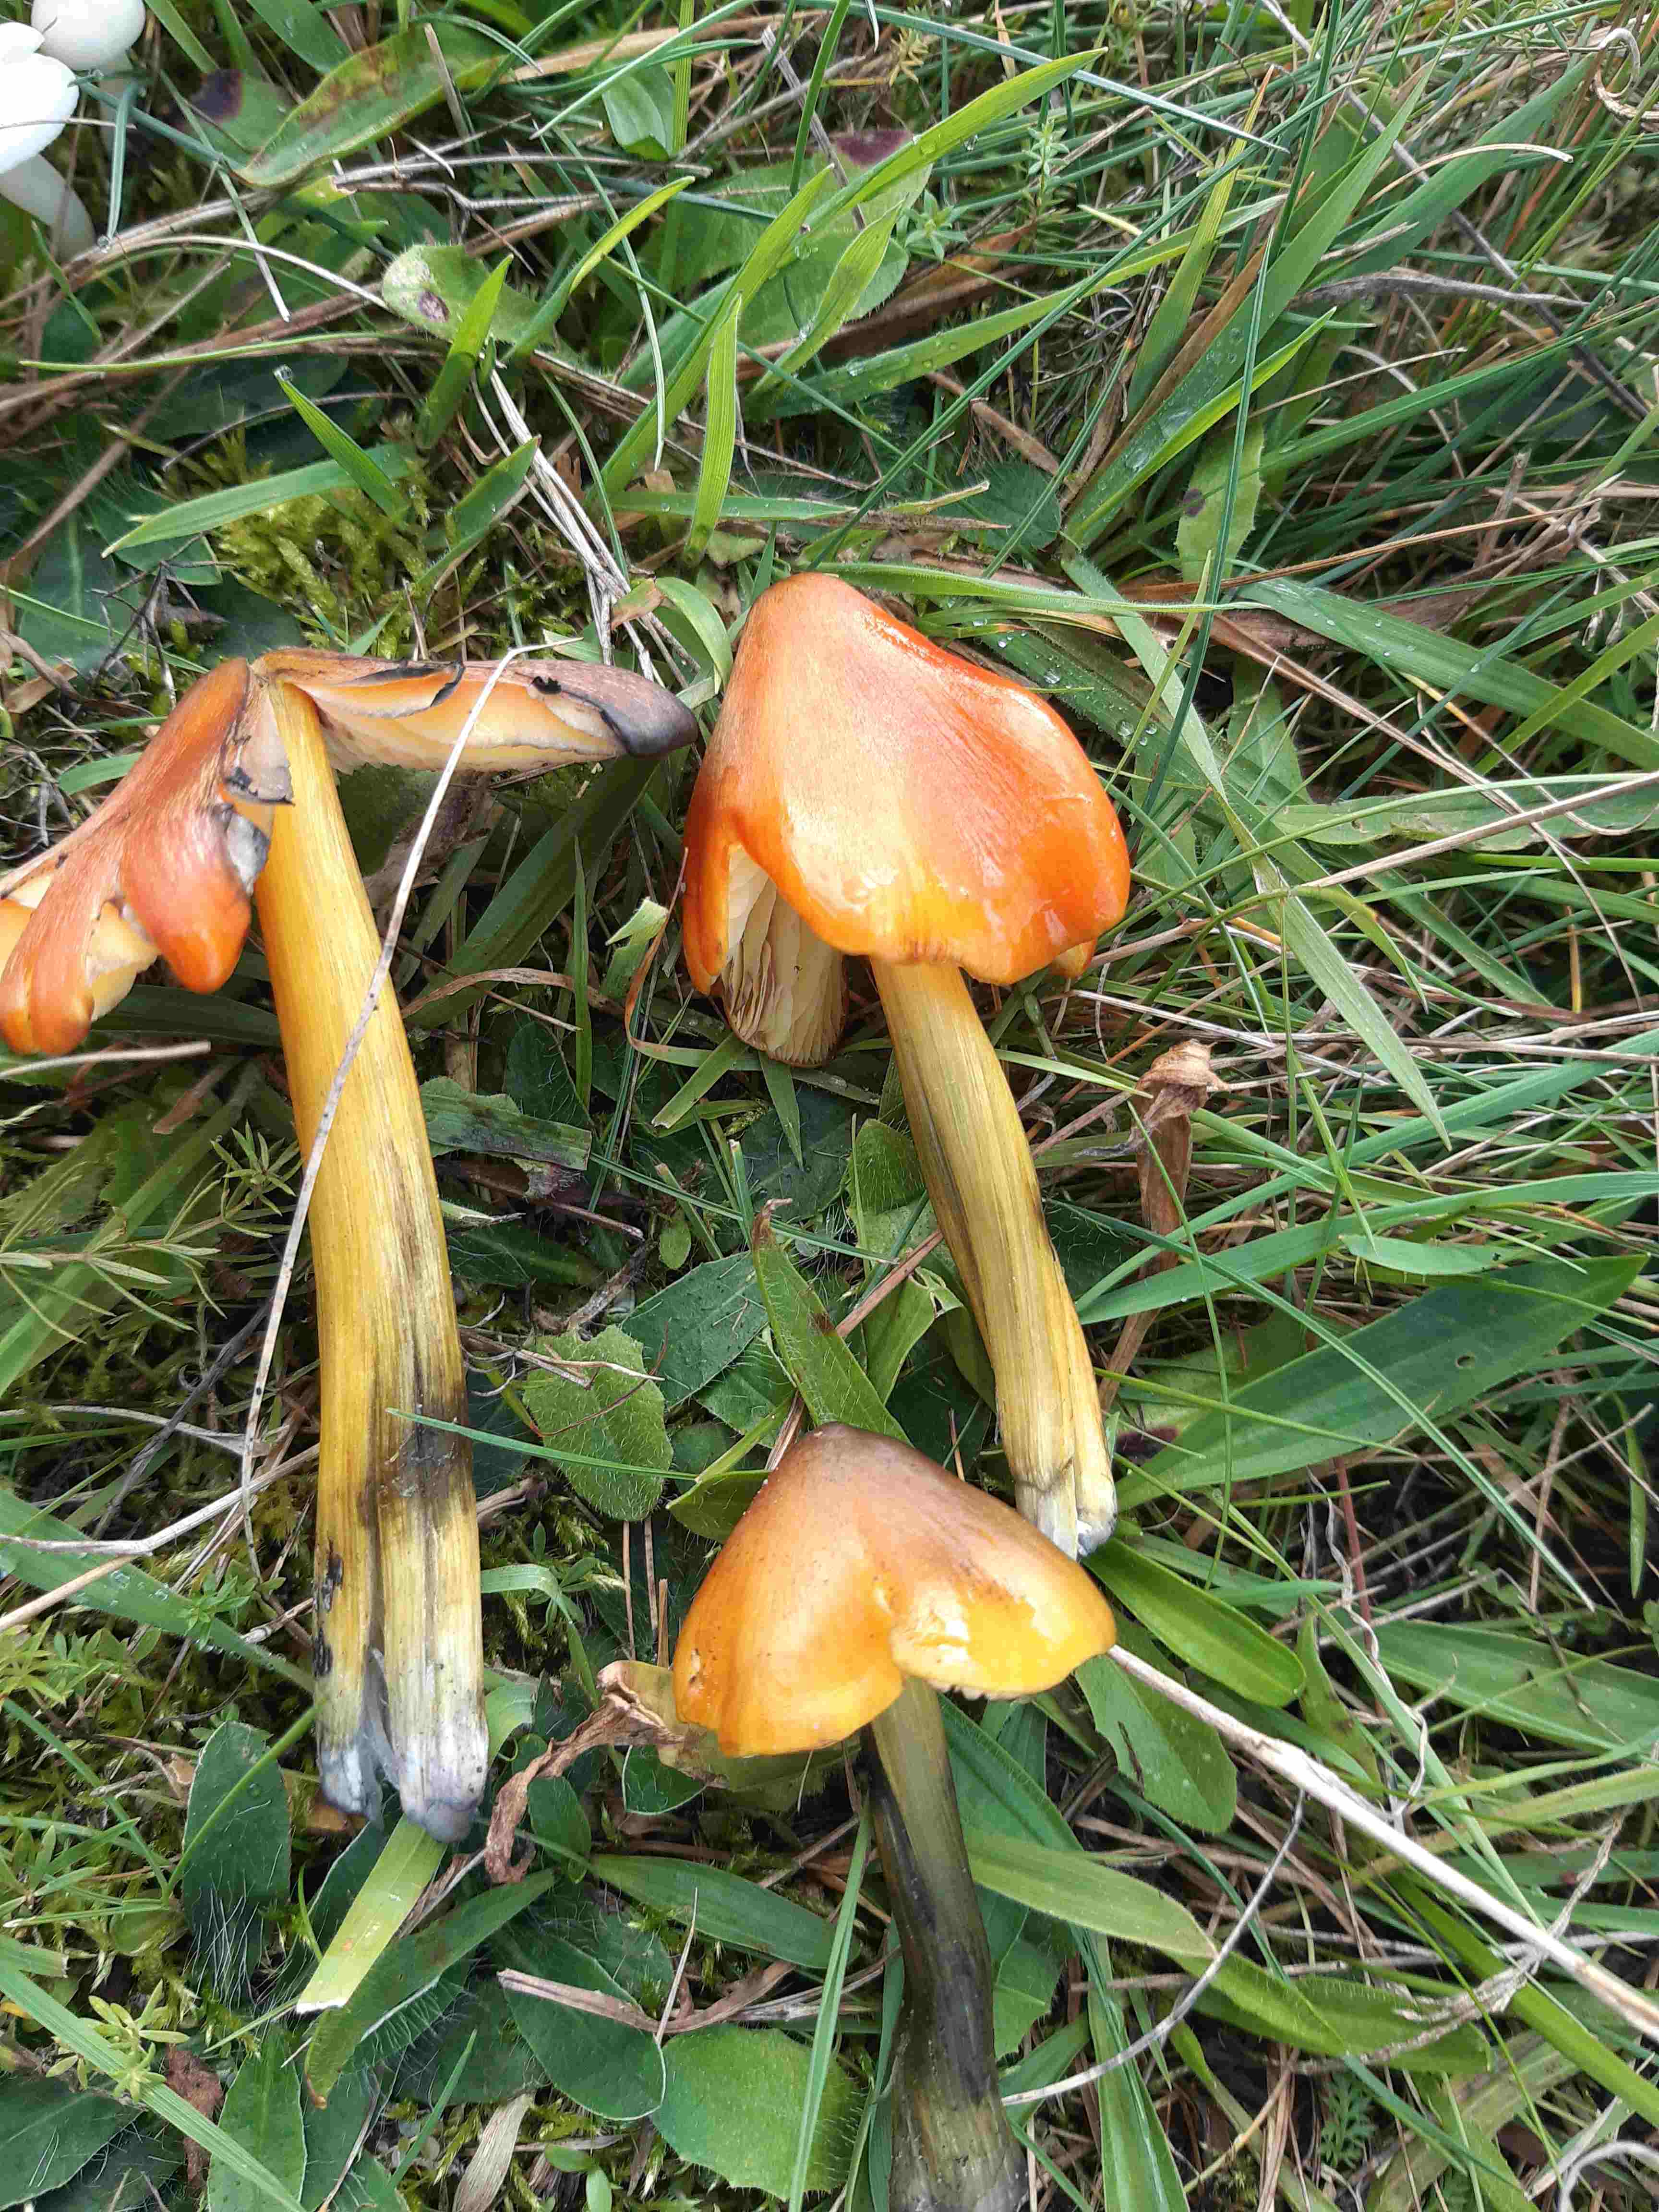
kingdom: Fungi
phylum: Basidiomycota
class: Agaricomycetes
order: Agaricales
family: Hygrophoraceae
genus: Hygrocybe
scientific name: Hygrocybe conica
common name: kegle-vokshat
